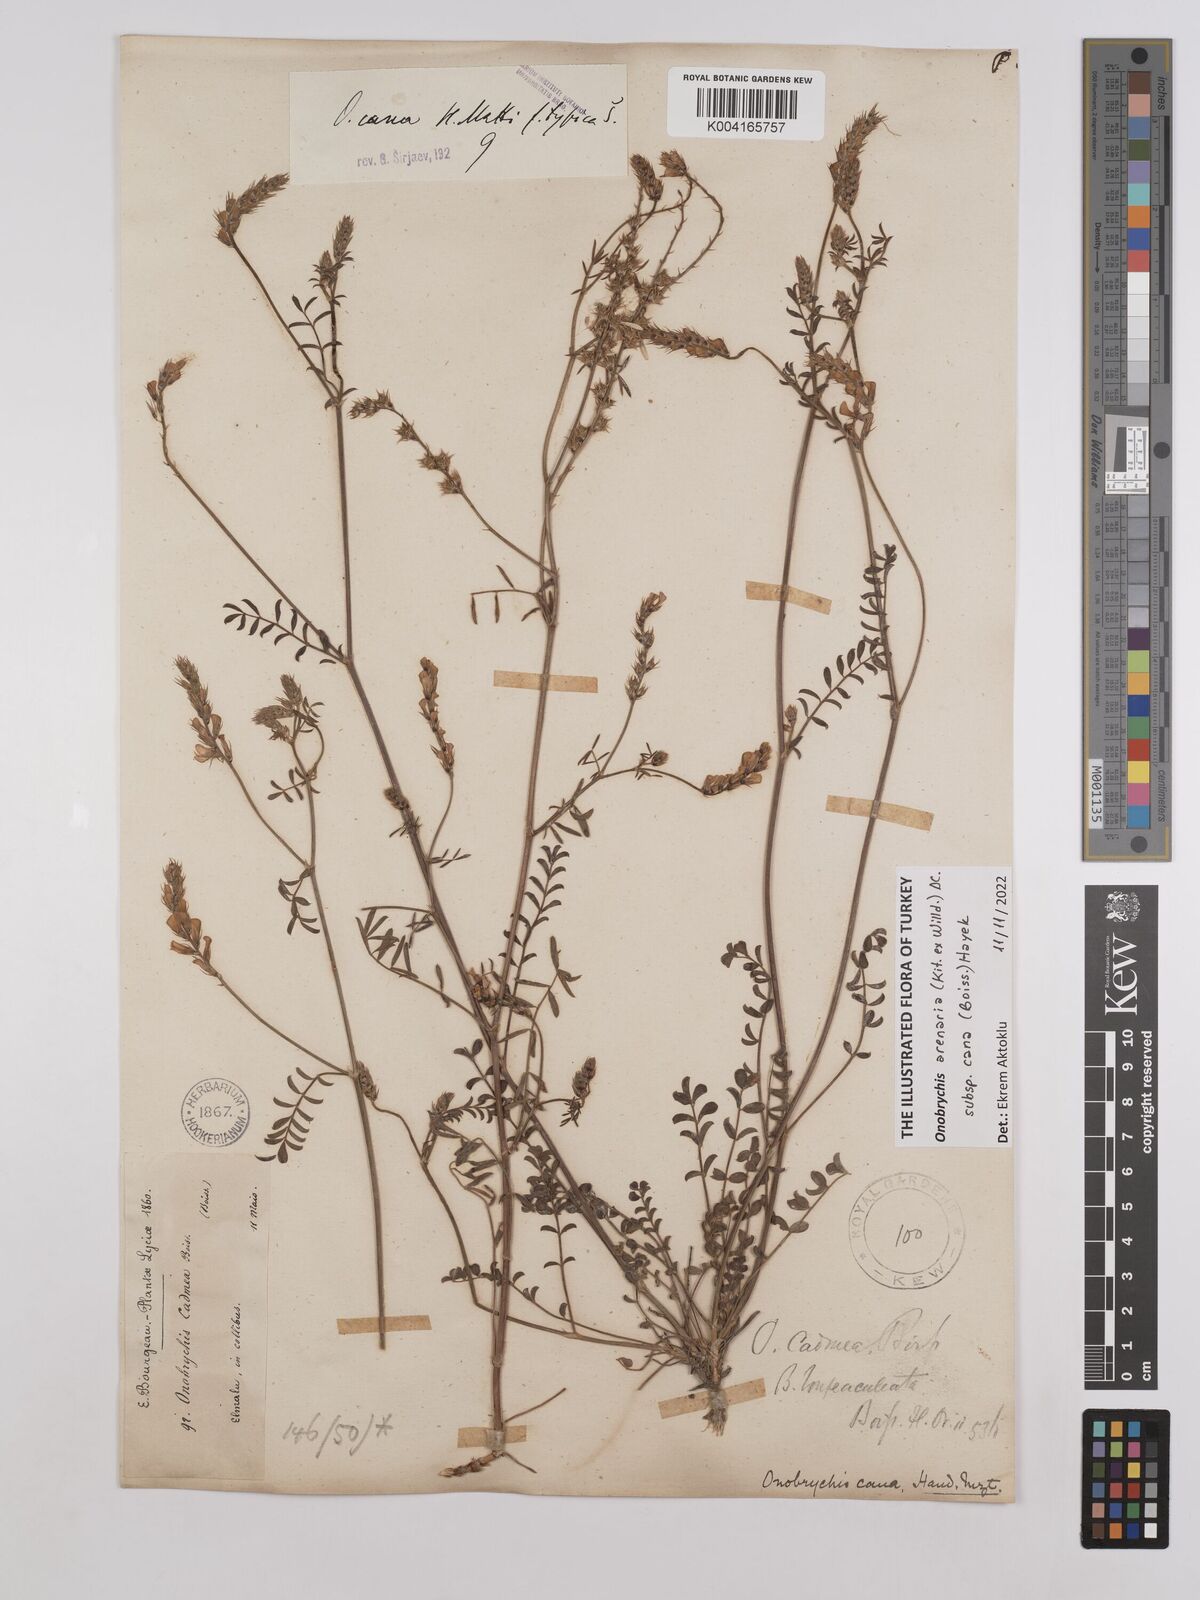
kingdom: Plantae
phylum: Tracheophyta
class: Magnoliopsida
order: Fabales
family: Fabaceae
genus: Onobrychis
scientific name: Onobrychis arenaria
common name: Sand esparcet
